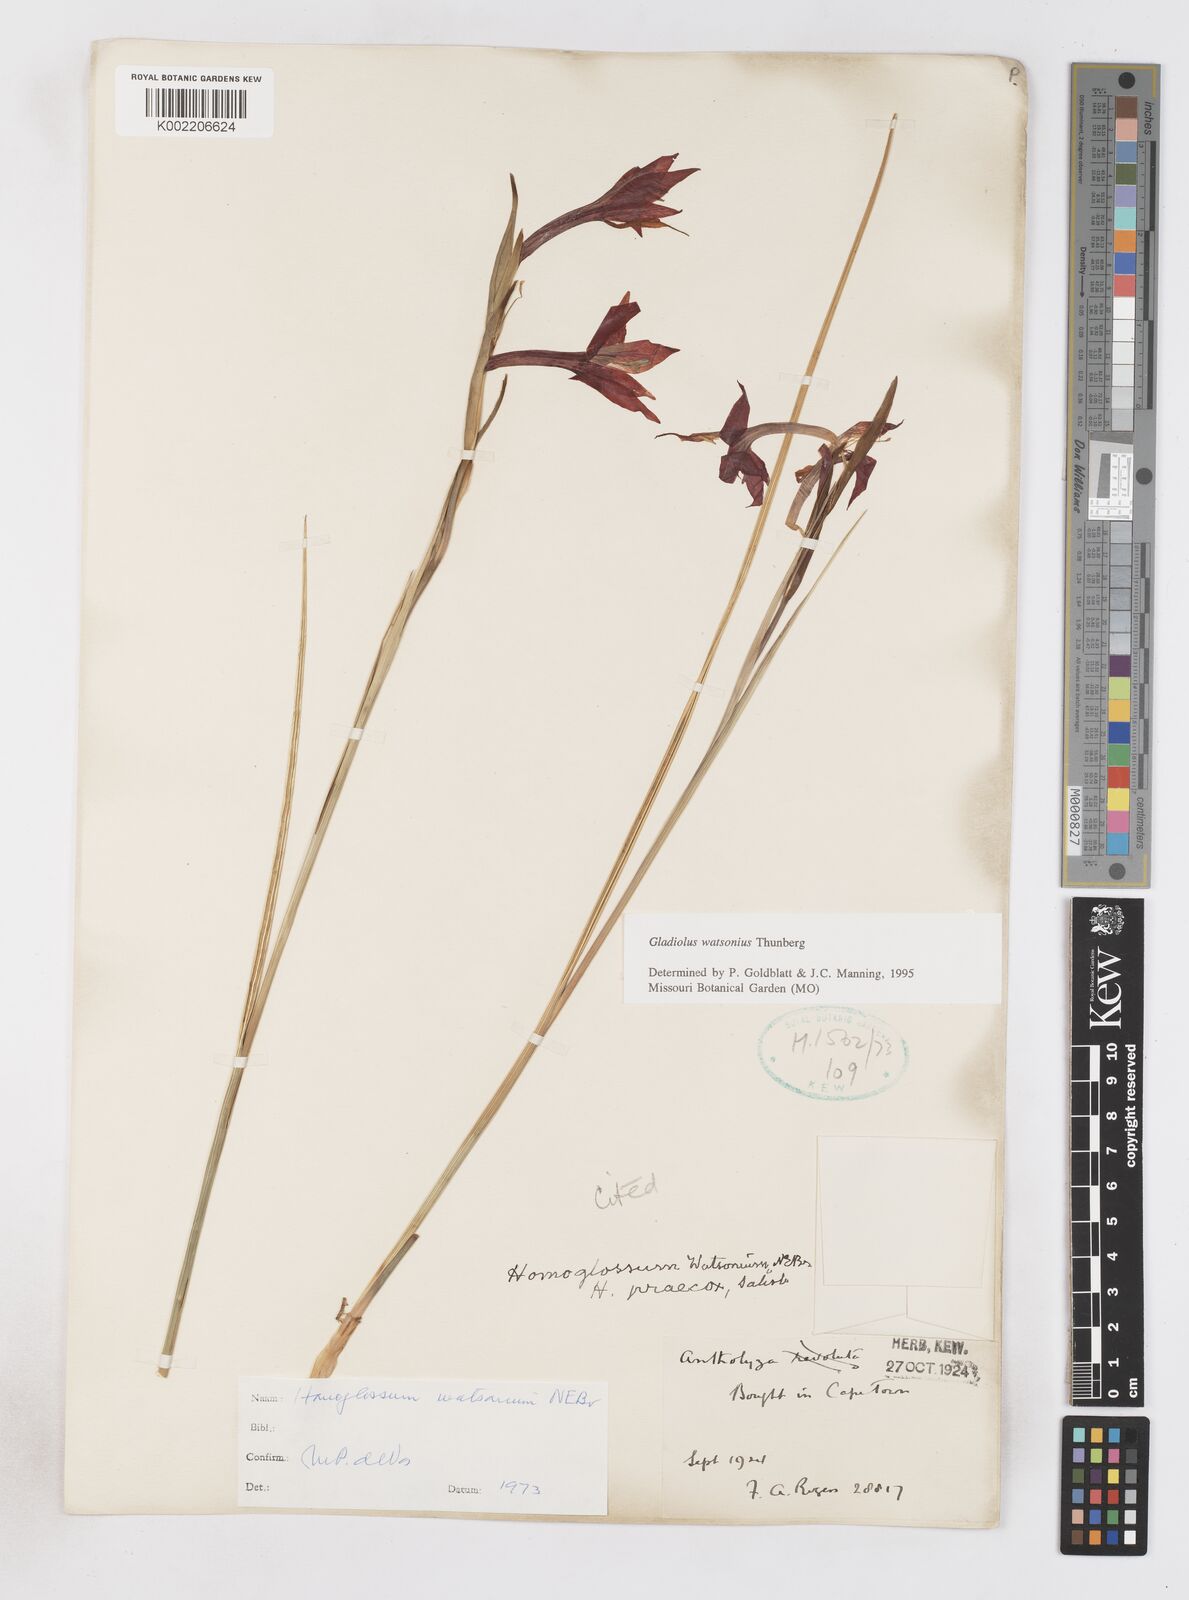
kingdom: Plantae
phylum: Tracheophyta
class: Liliopsida
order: Asparagales
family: Iridaceae
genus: Gladiolus
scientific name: Gladiolus watsonius
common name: Red afrikaner
